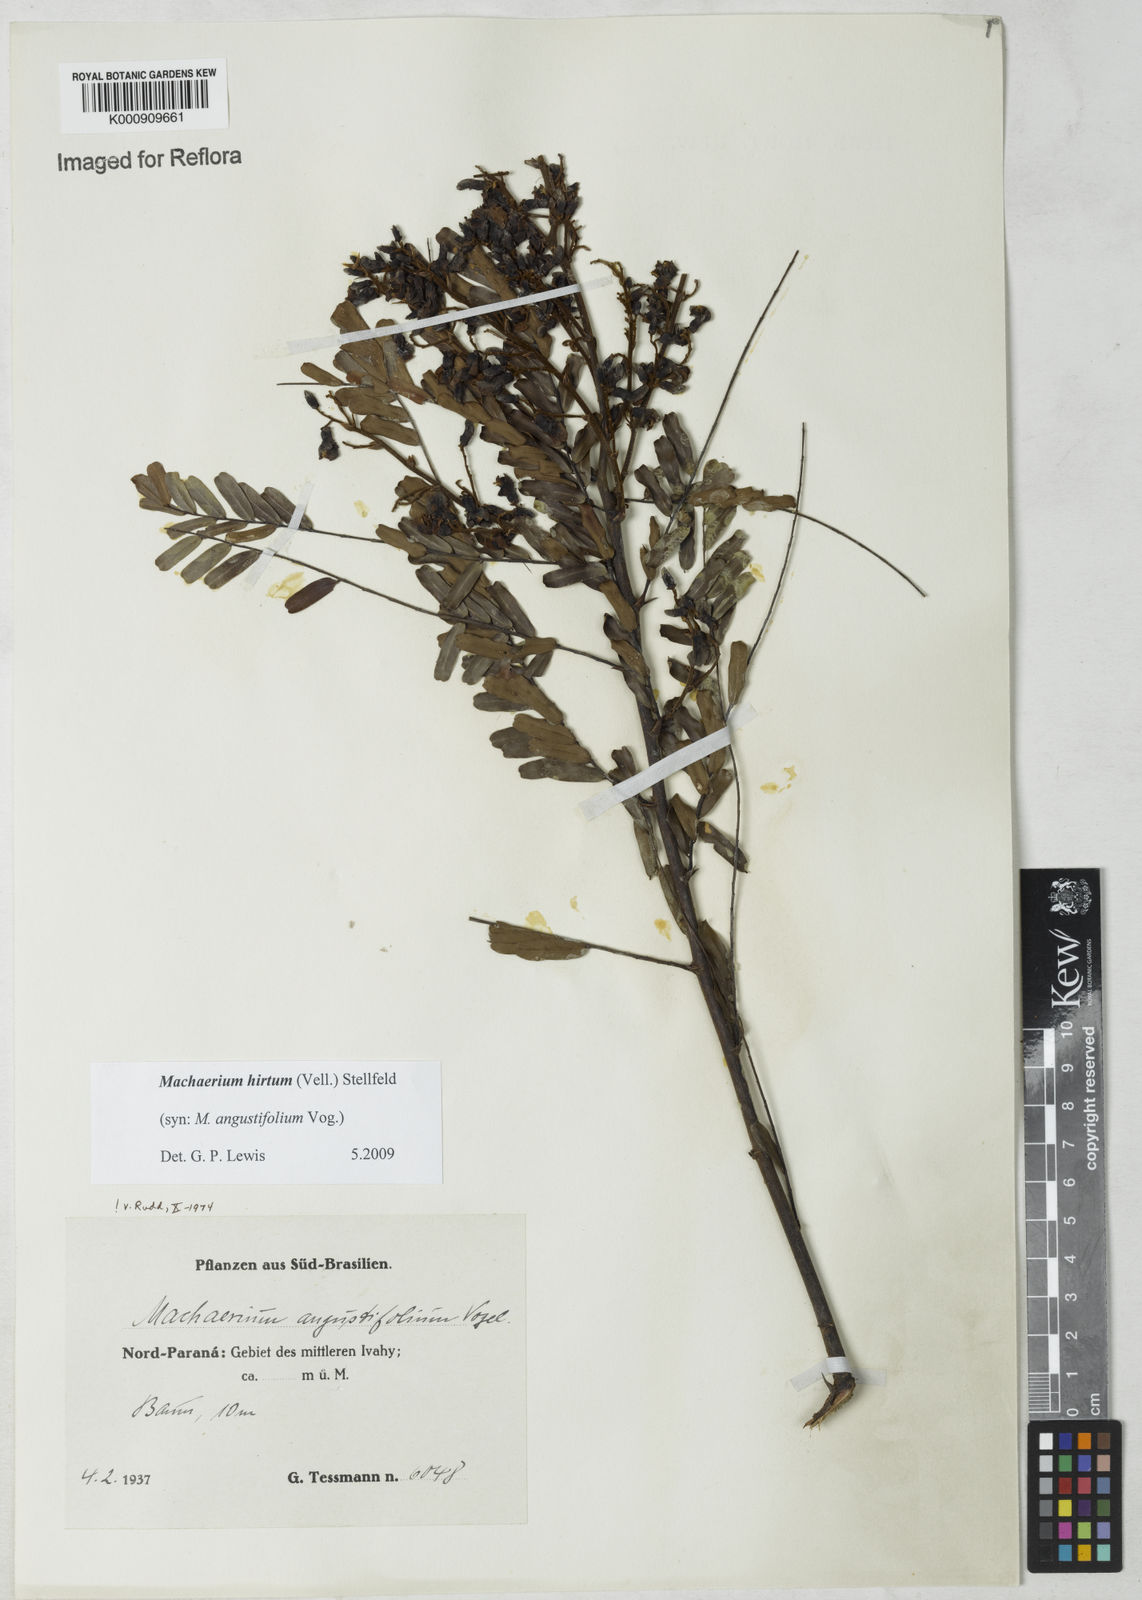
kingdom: Plantae
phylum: Tracheophyta
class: Magnoliopsida
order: Fabales
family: Fabaceae
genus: Machaerium
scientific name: Machaerium hirtum
